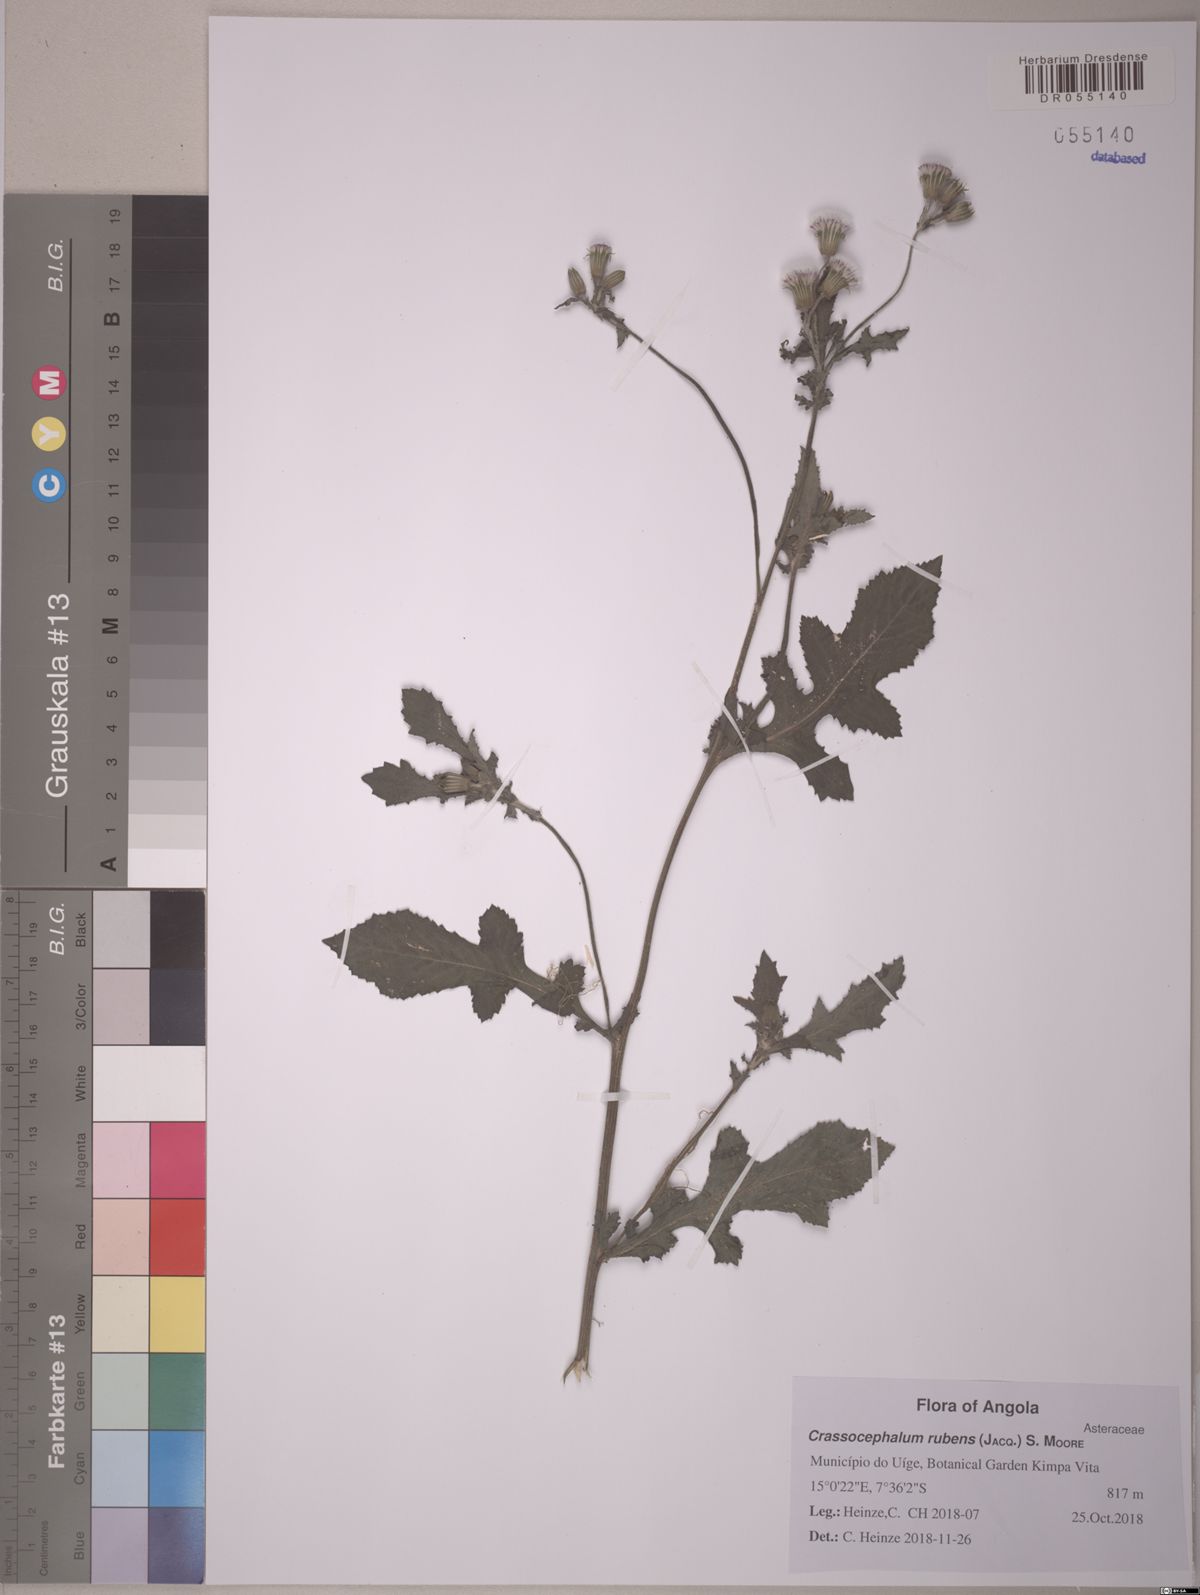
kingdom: Plantae
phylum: Tracheophyta
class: Magnoliopsida
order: Asterales
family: Asteraceae
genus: Crassocephalum
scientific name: Crassocephalum rubens
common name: Yoruban bologi
